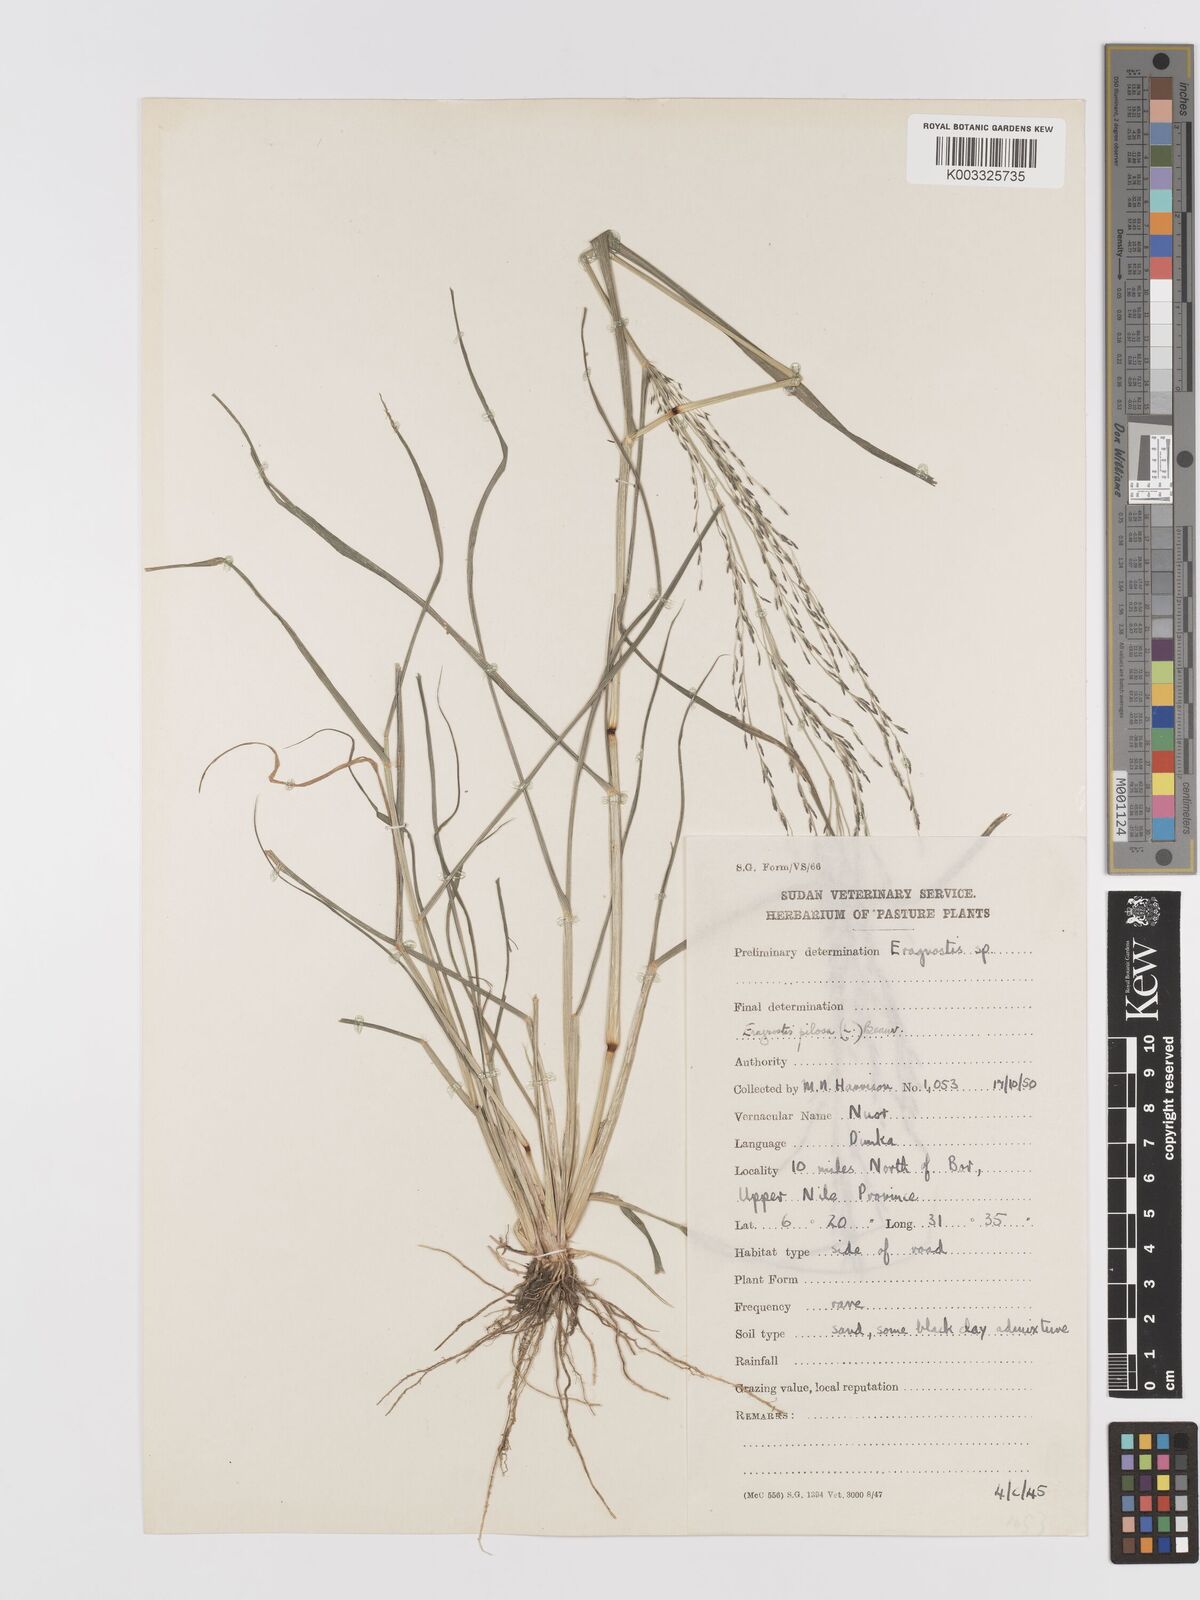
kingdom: Plantae
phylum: Tracheophyta
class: Liliopsida
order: Poales
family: Poaceae
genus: Eragrostis
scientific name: Eragrostis pilosa
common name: Indian lovegrass
